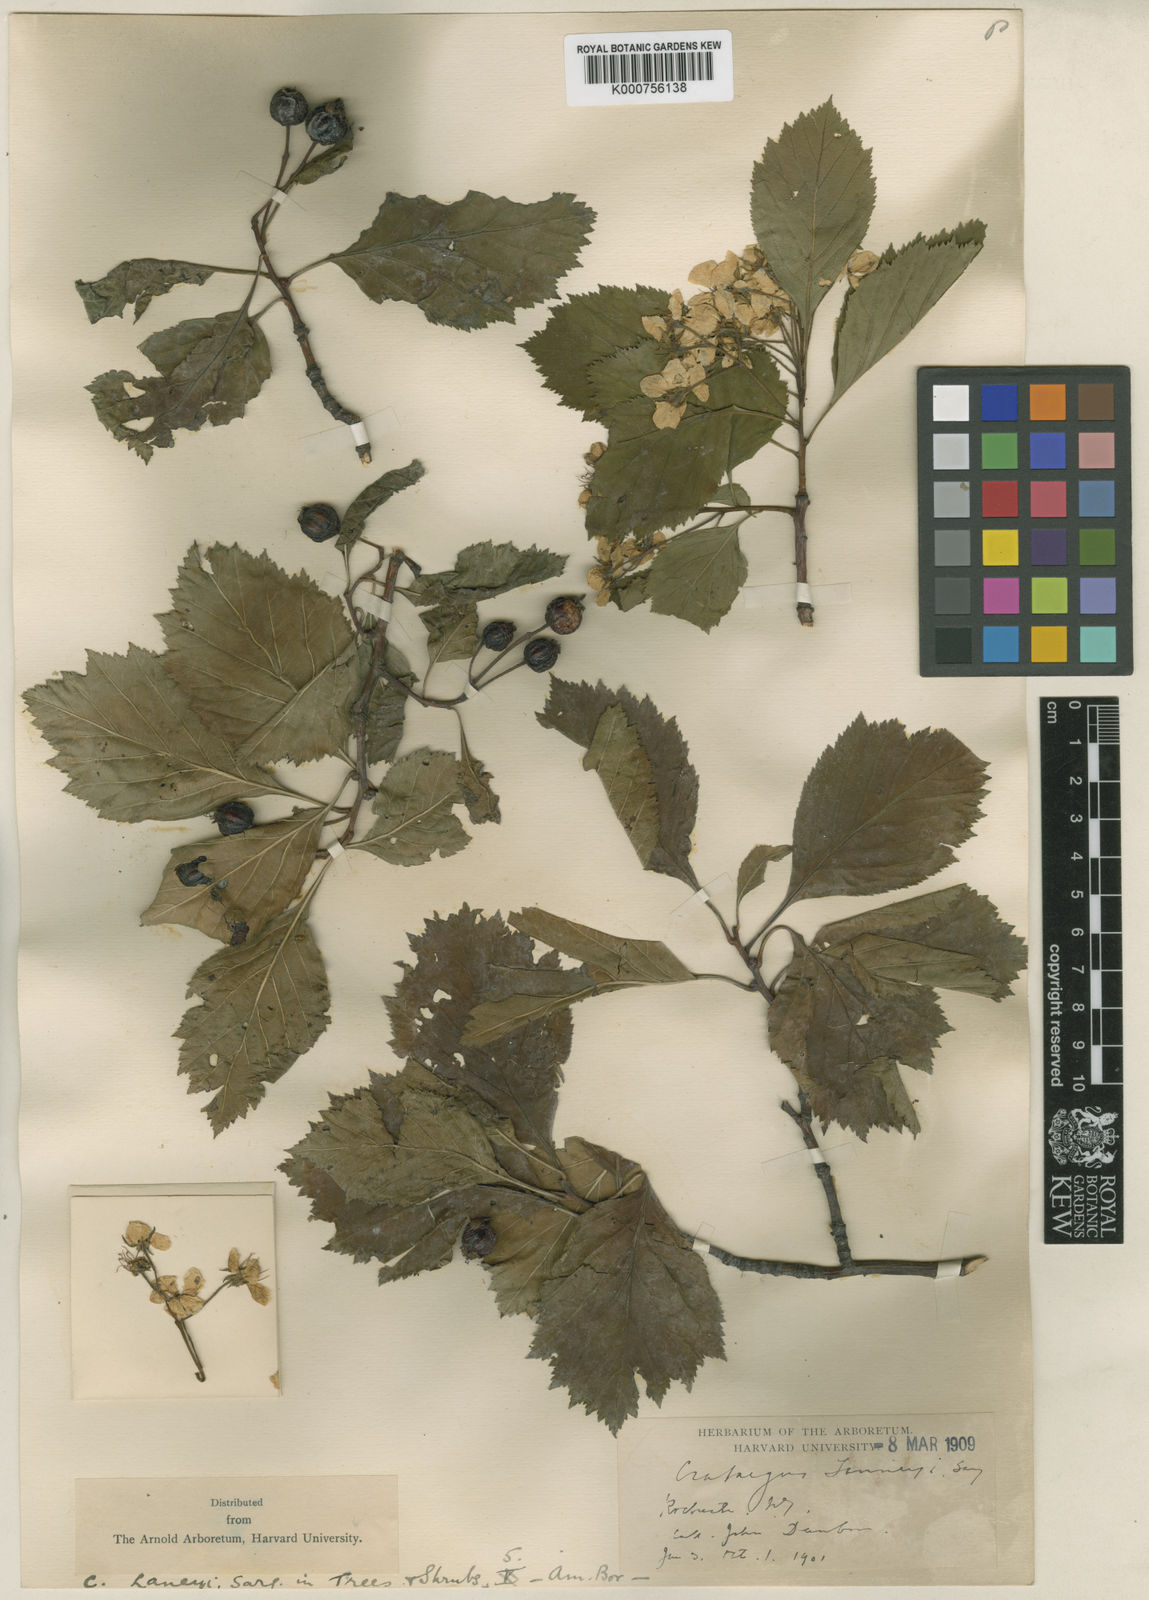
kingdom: Plantae
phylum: Tracheophyta
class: Magnoliopsida
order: Rosales
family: Rosaceae
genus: Crataegus
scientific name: Crataegus laneyi
